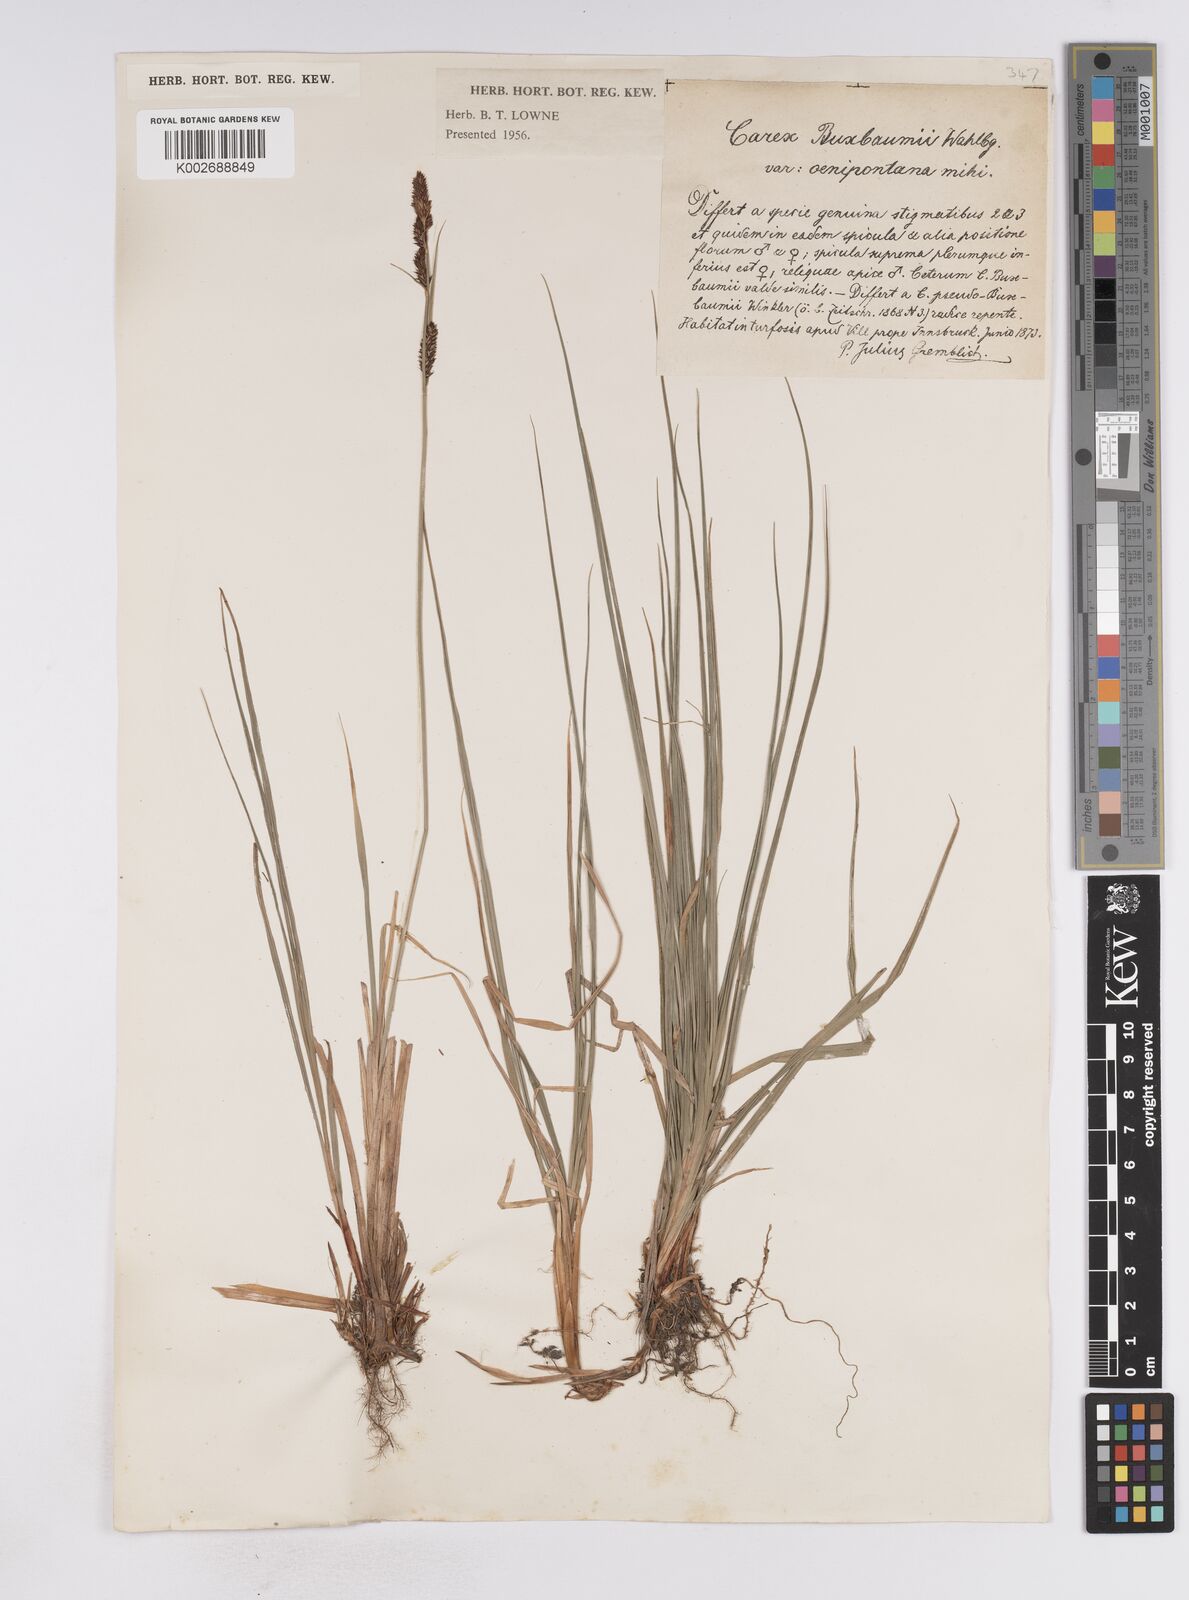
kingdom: Plantae
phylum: Tracheophyta
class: Liliopsida
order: Poales
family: Cyperaceae
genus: Carex
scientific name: Carex buxbaumii
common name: Club sedge
